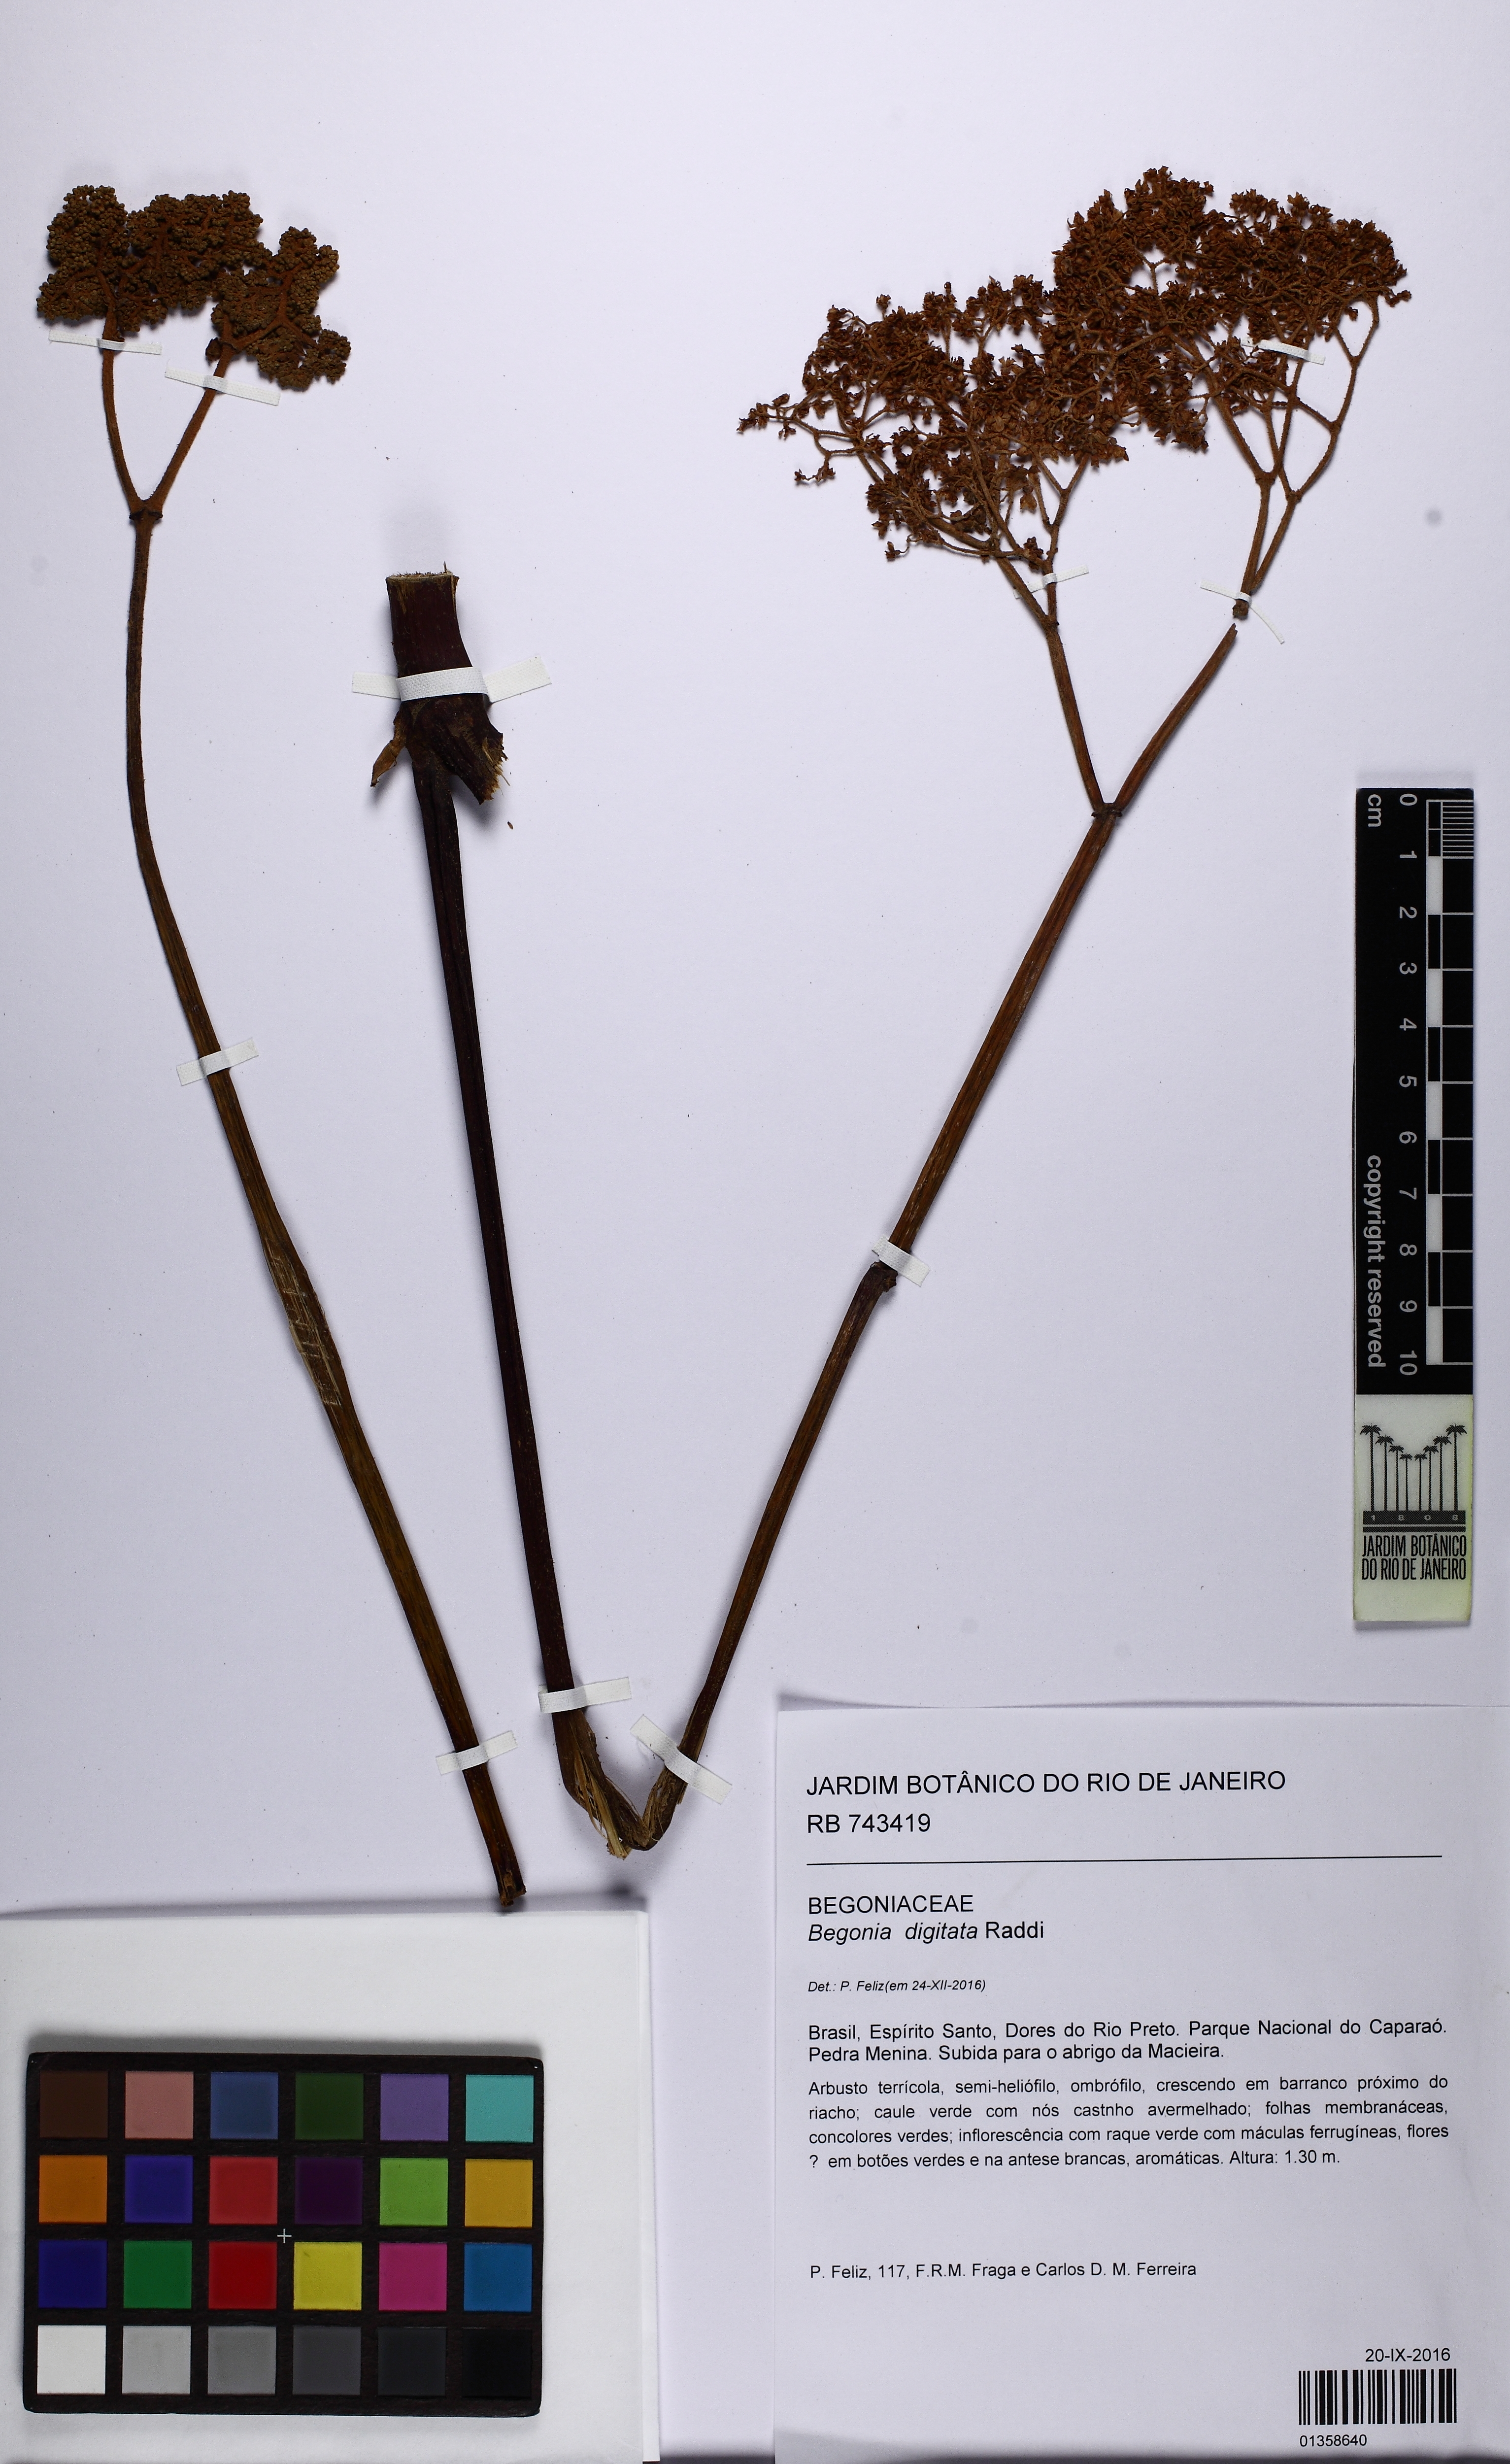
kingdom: Plantae
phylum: Tracheophyta
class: Magnoliopsida
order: Cucurbitales
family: Begoniaceae
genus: Begonia
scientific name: Begonia digitata
